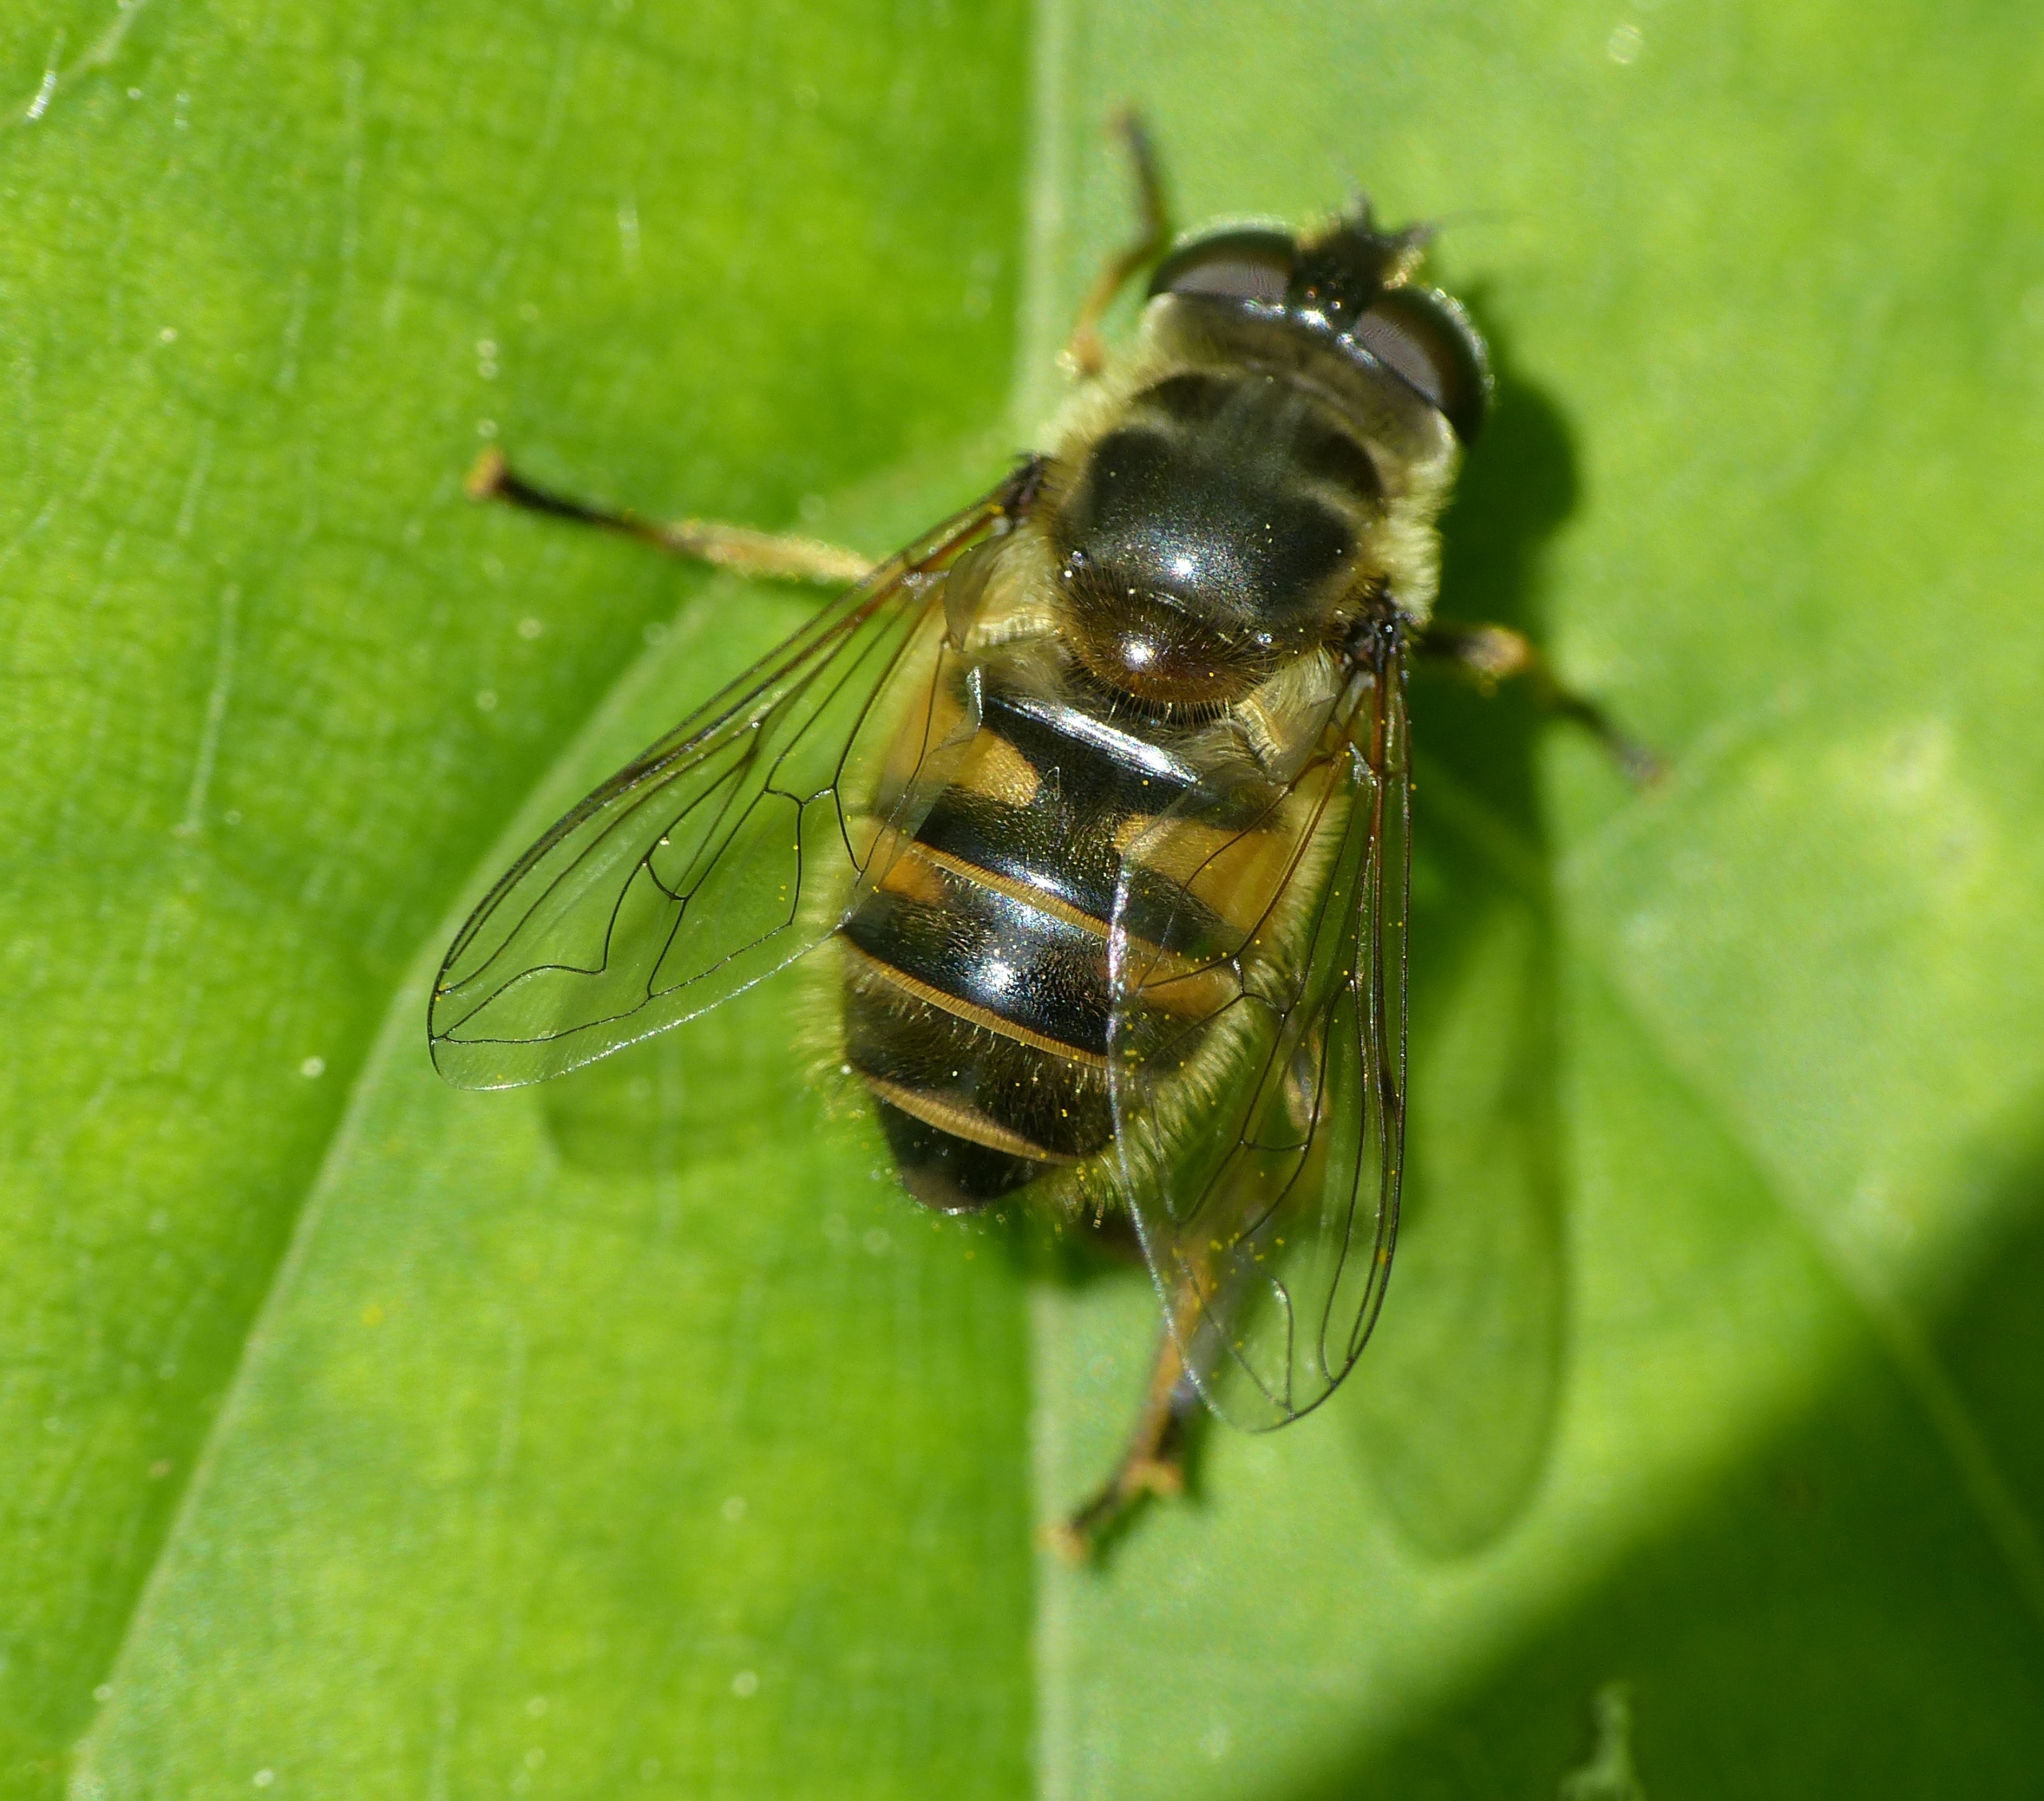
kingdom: Animalia
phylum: Arthropoda
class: Insecta
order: Diptera
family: Syrphidae
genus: Myathropa
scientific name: Myathropa florea
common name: Dødningehoved-svirreflue
